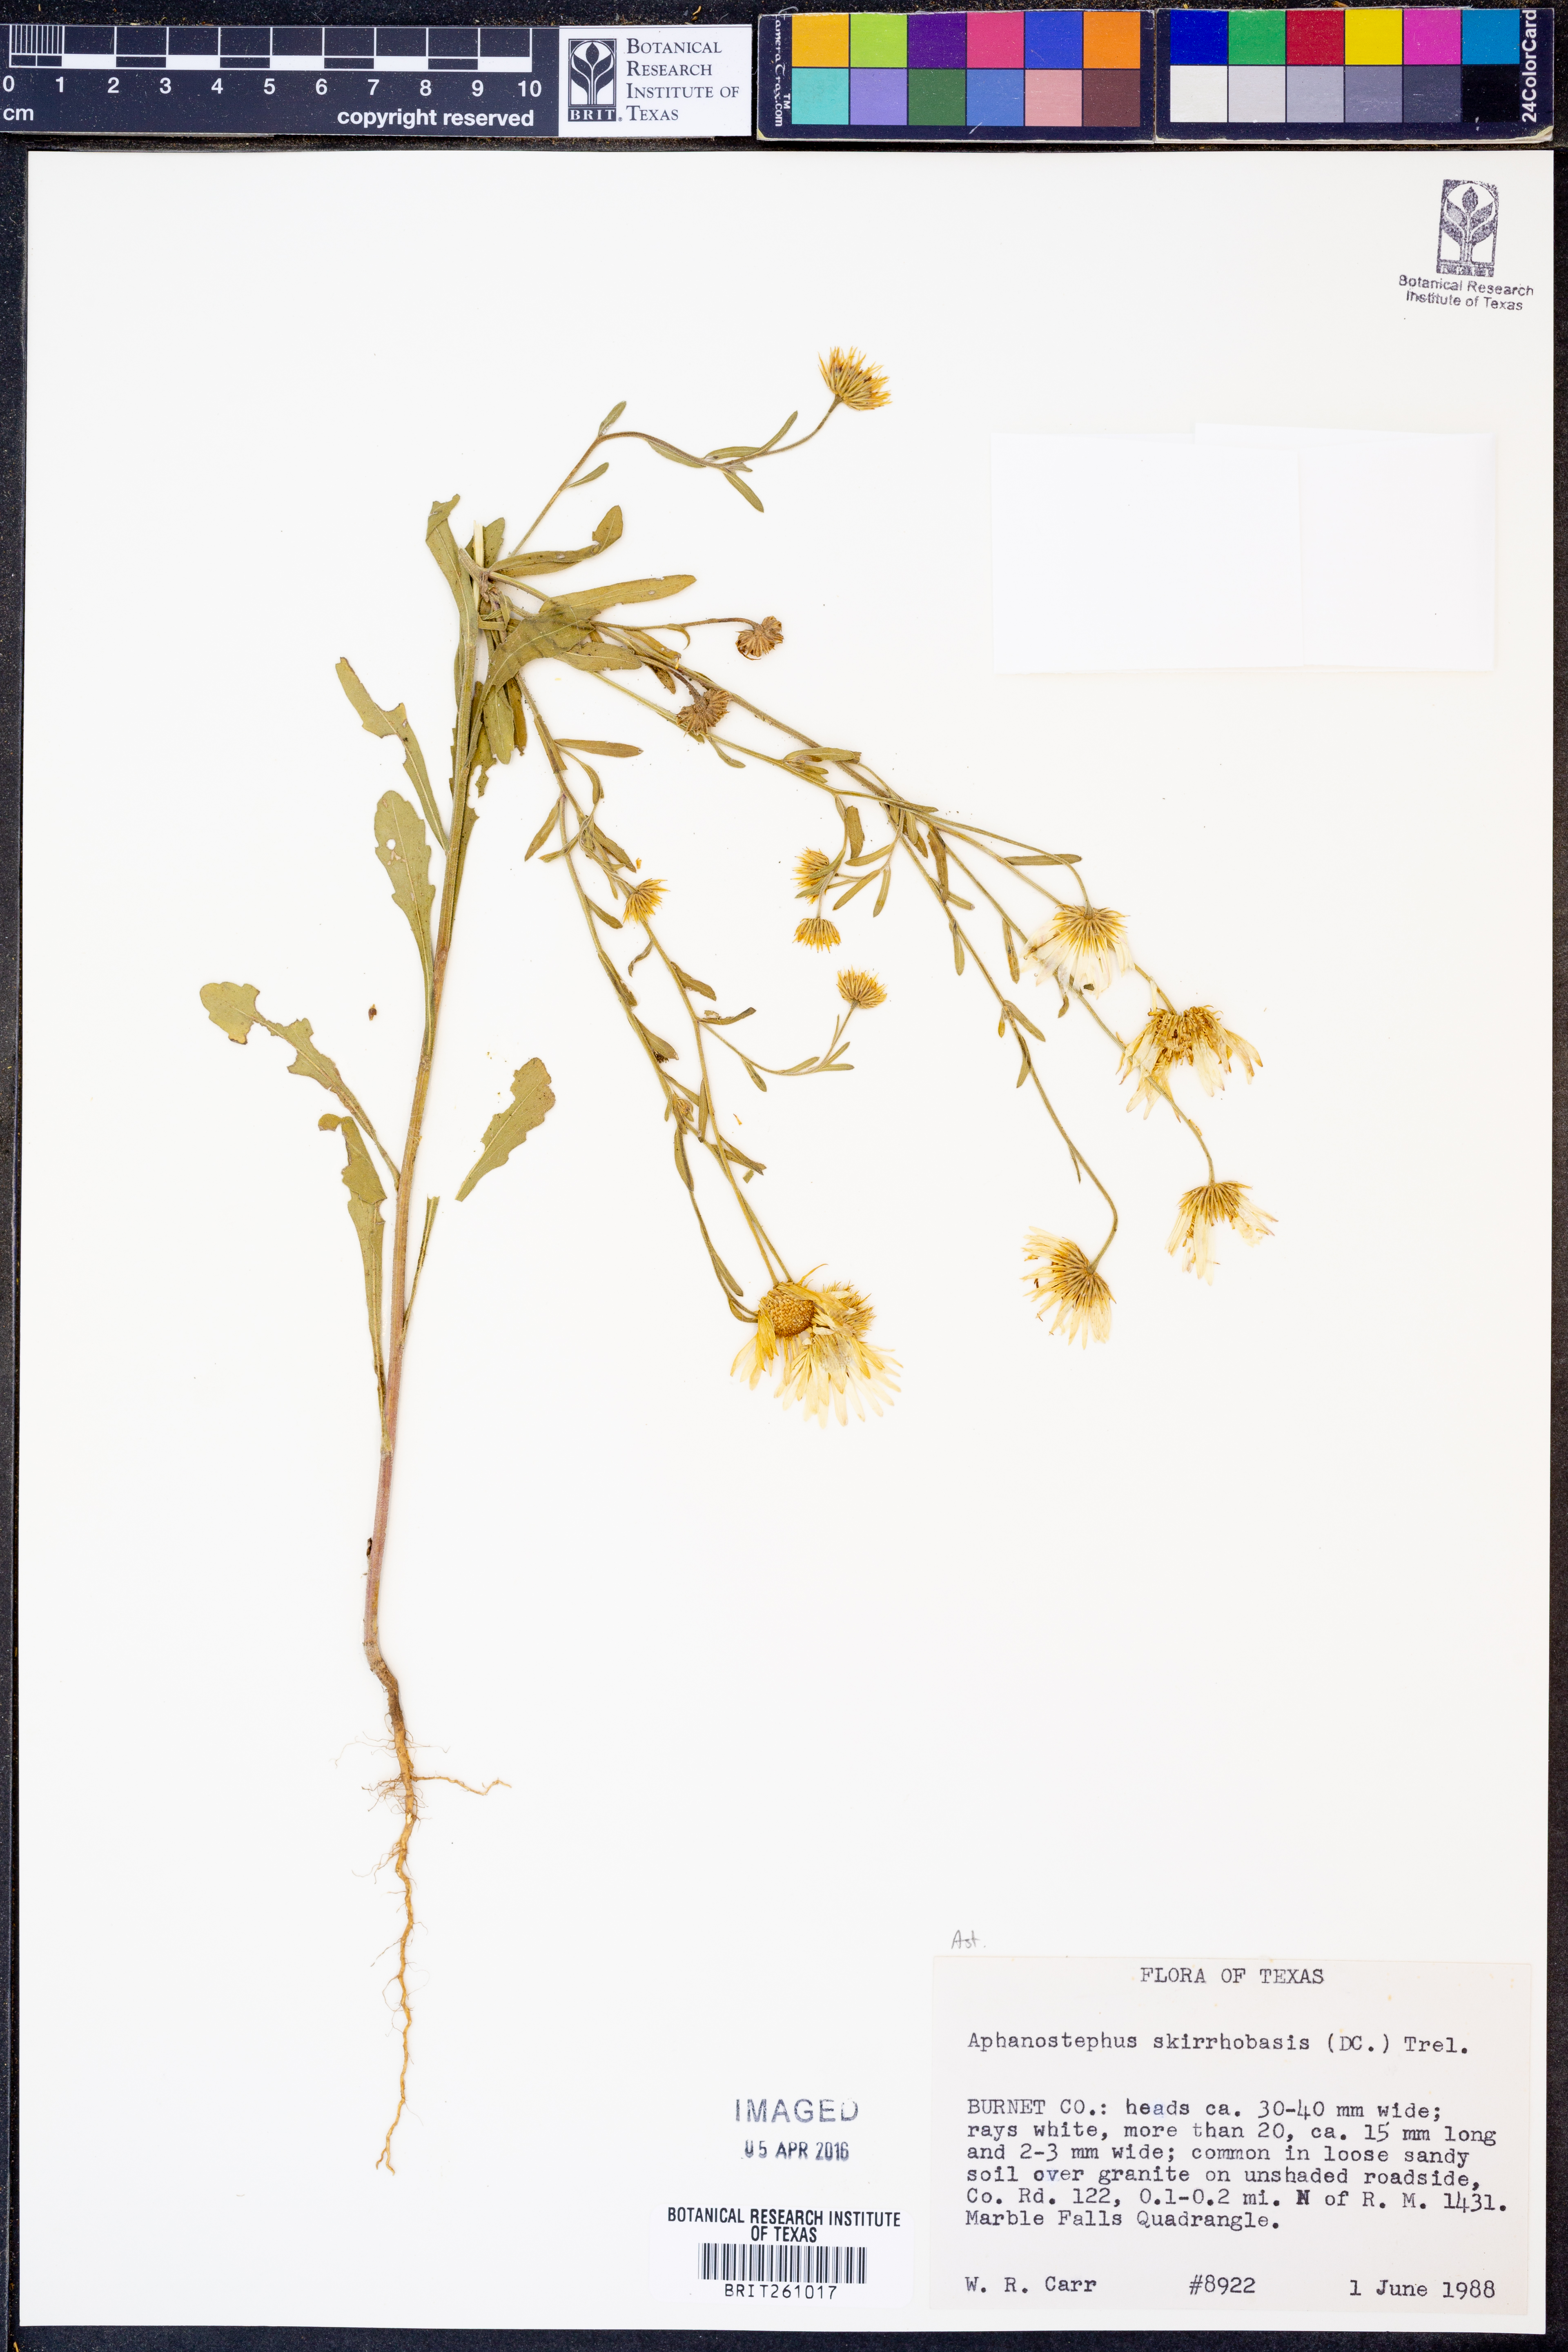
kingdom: Plantae
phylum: Tracheophyta
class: Magnoliopsida
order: Asterales
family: Asteraceae
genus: Aphanostephus
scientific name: Aphanostephus skirrhobasis
